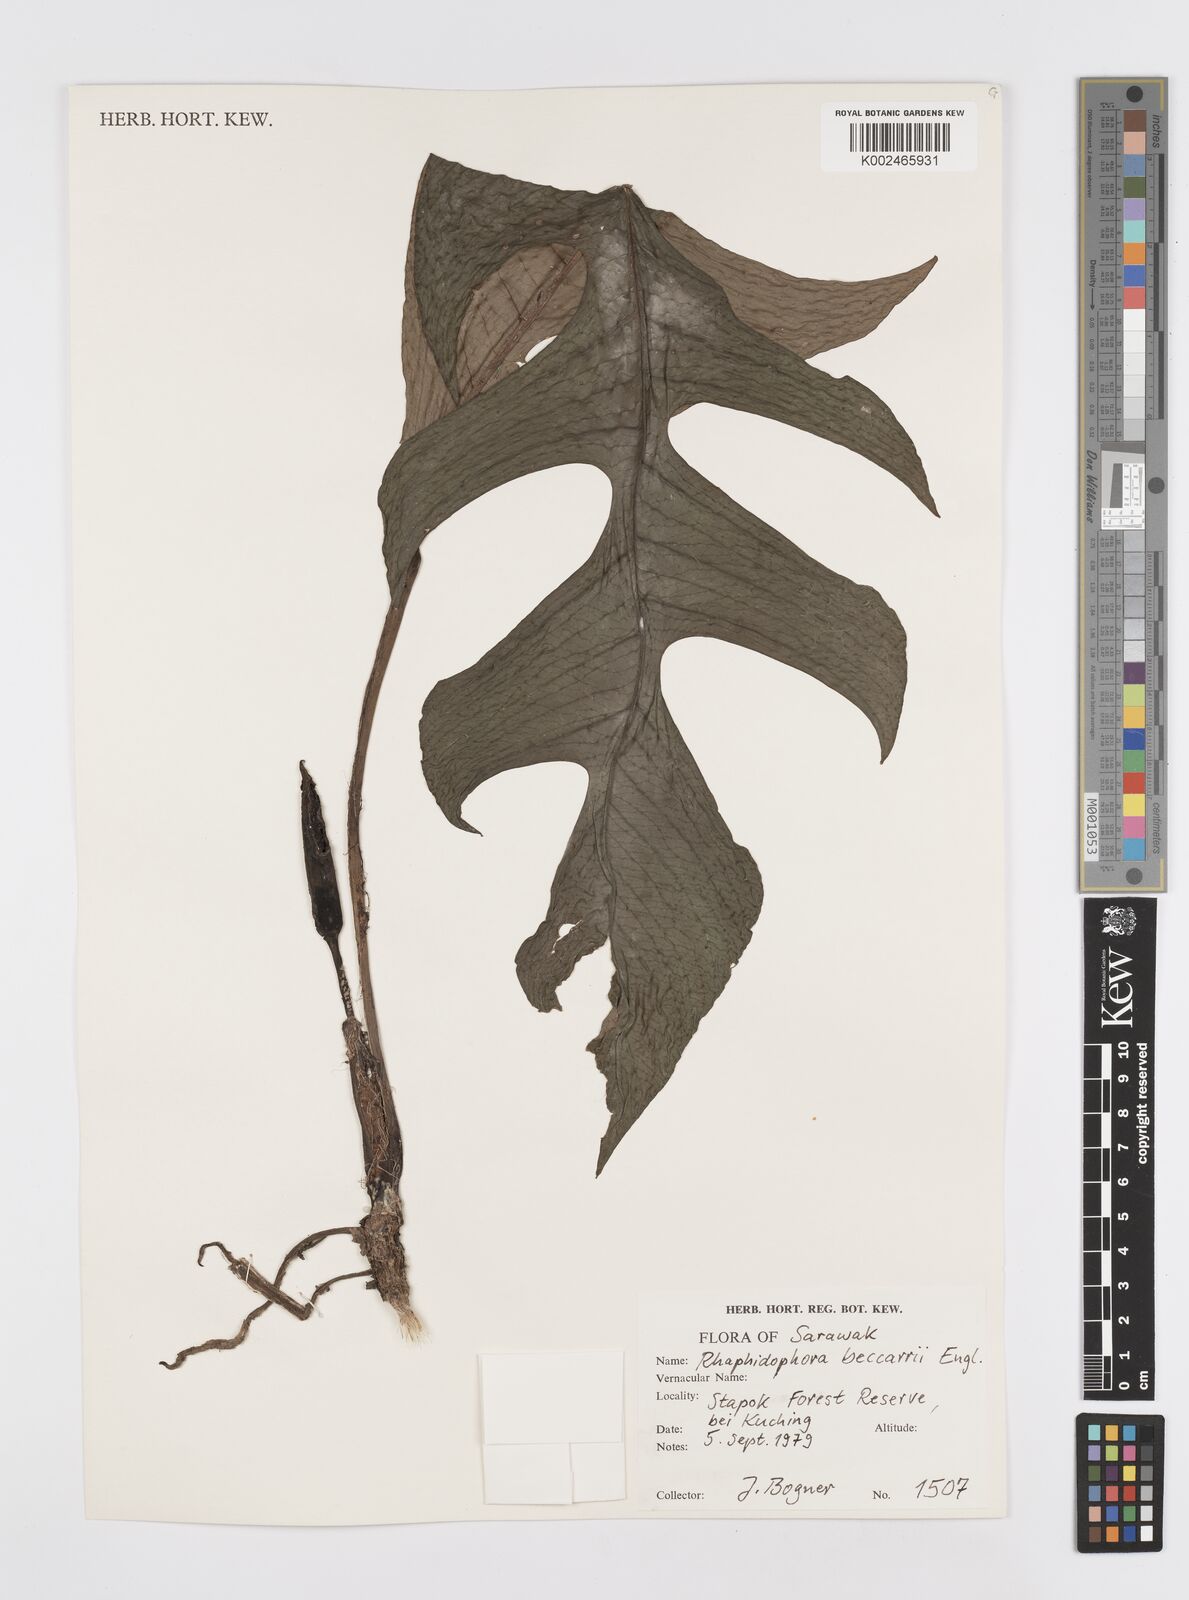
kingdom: Plantae
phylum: Tracheophyta
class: Liliopsida
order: Alismatales
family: Araceae
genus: Rhaphidophora
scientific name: Rhaphidophora beccarii
